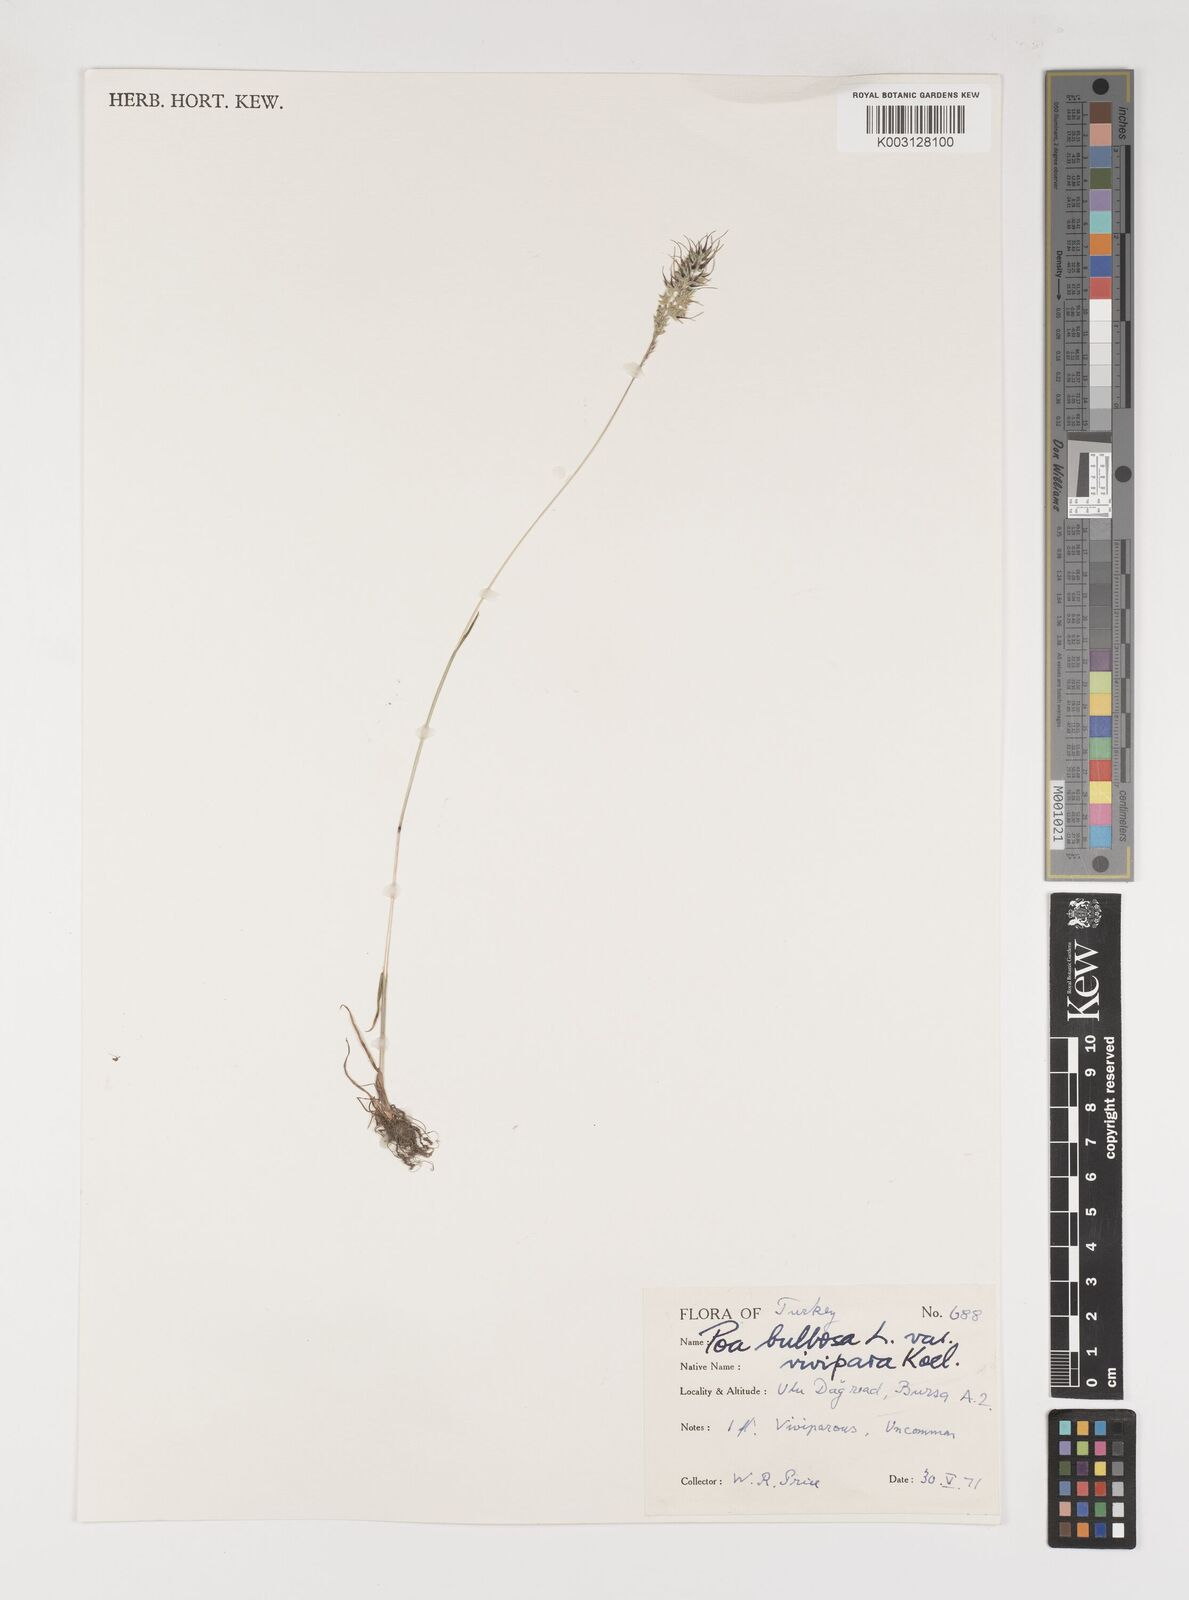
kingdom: Plantae
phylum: Tracheophyta
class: Liliopsida
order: Poales
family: Poaceae
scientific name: Poaceae
